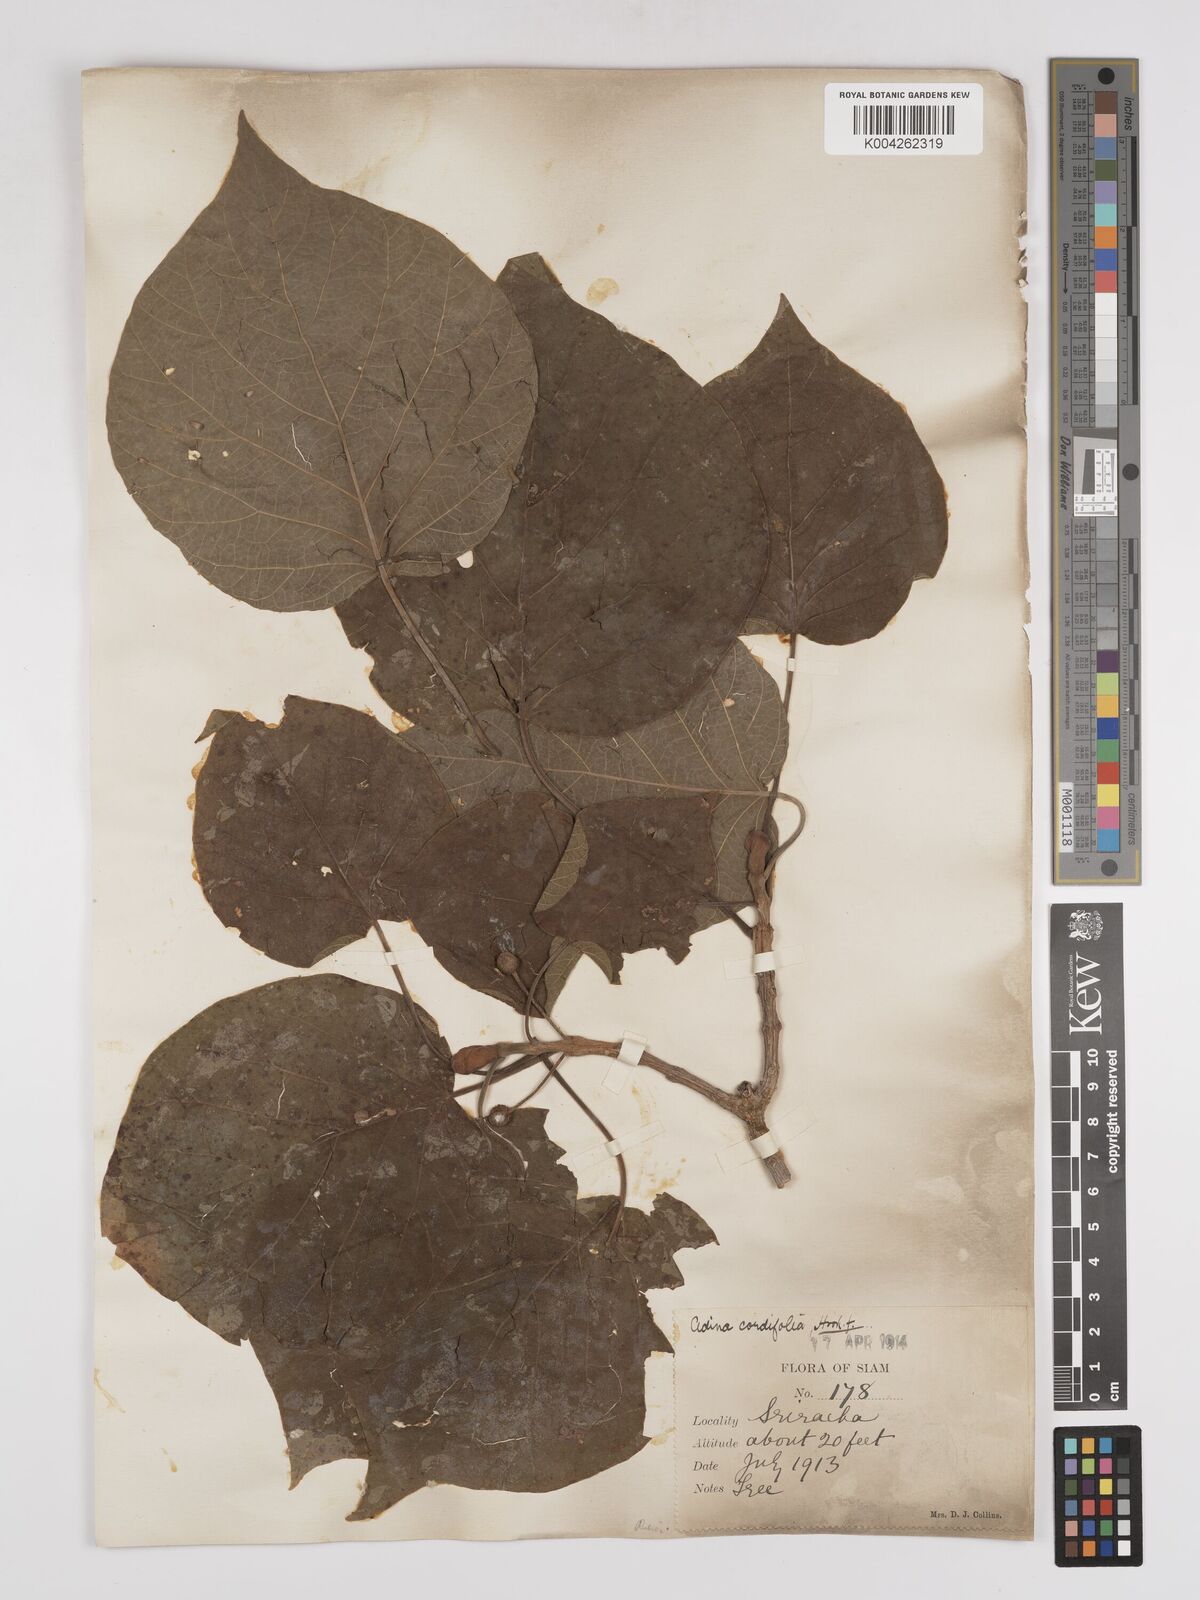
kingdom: Plantae
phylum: Tracheophyta
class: Magnoliopsida
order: Gentianales
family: Rubiaceae
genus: Adina
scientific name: Adina cordifolia
